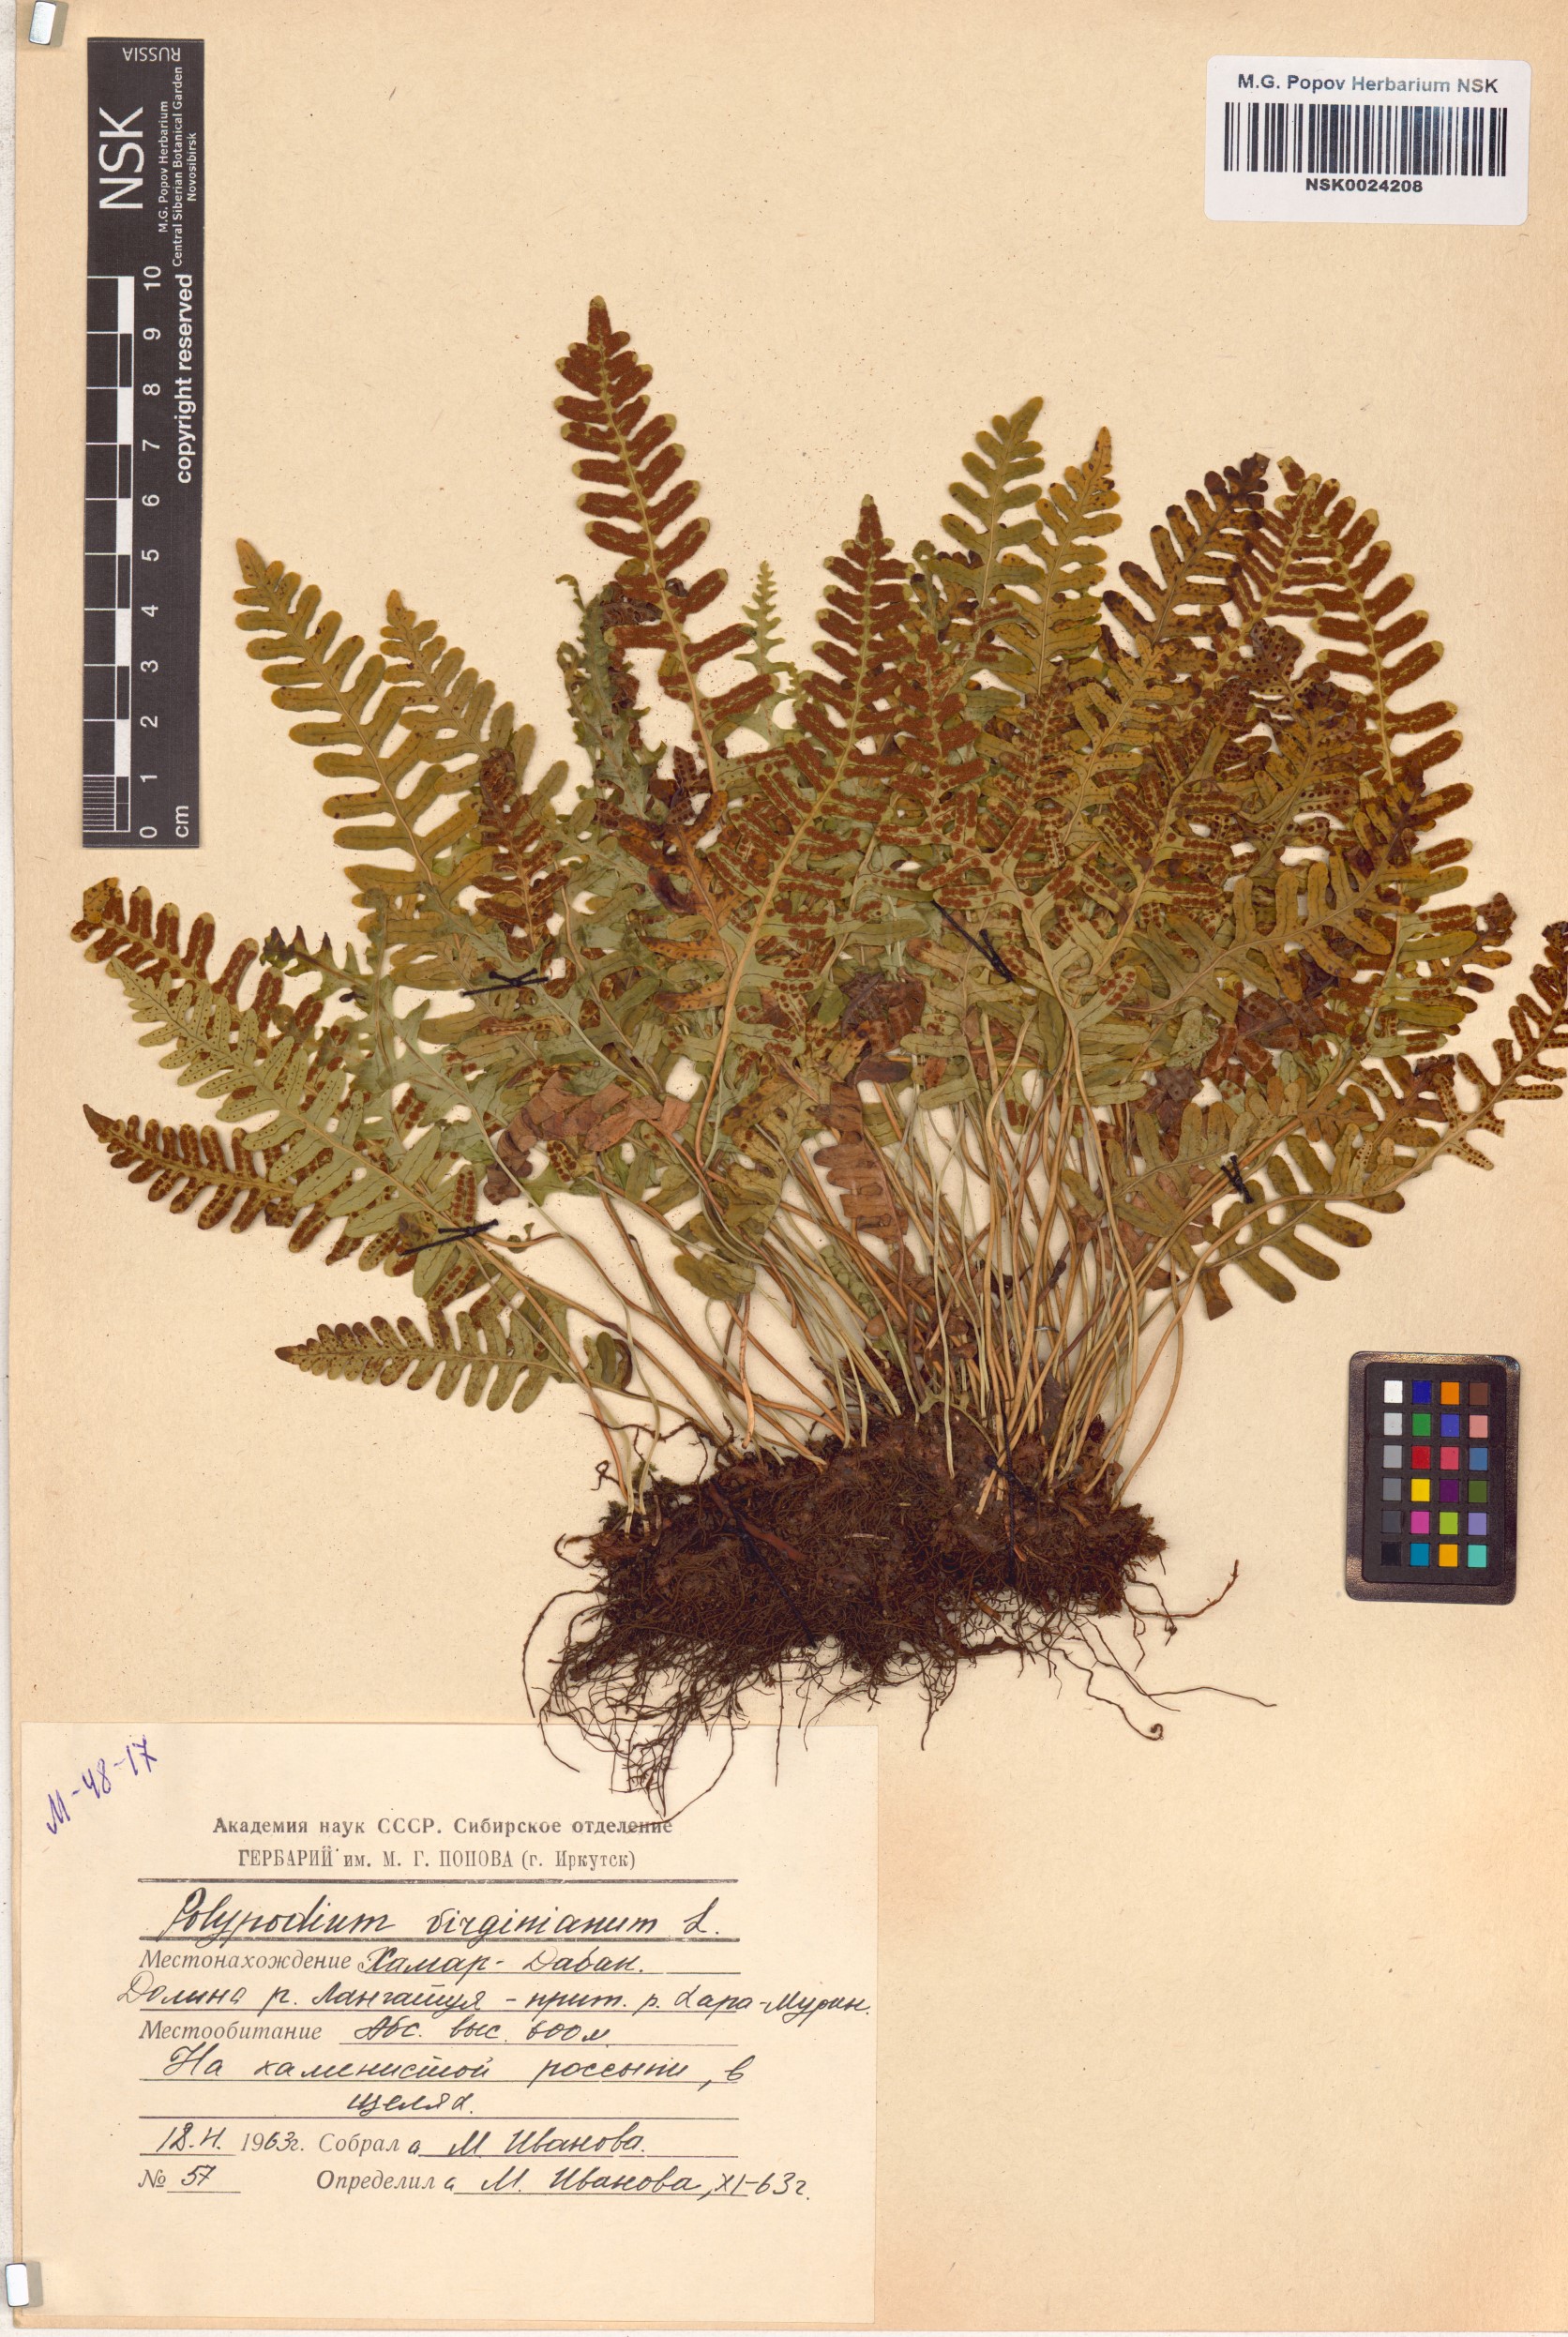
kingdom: Plantae
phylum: Tracheophyta
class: Polypodiopsida
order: Polypodiales
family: Polypodiaceae
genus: Polypodium
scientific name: Polypodium virginianum
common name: American wall fern
